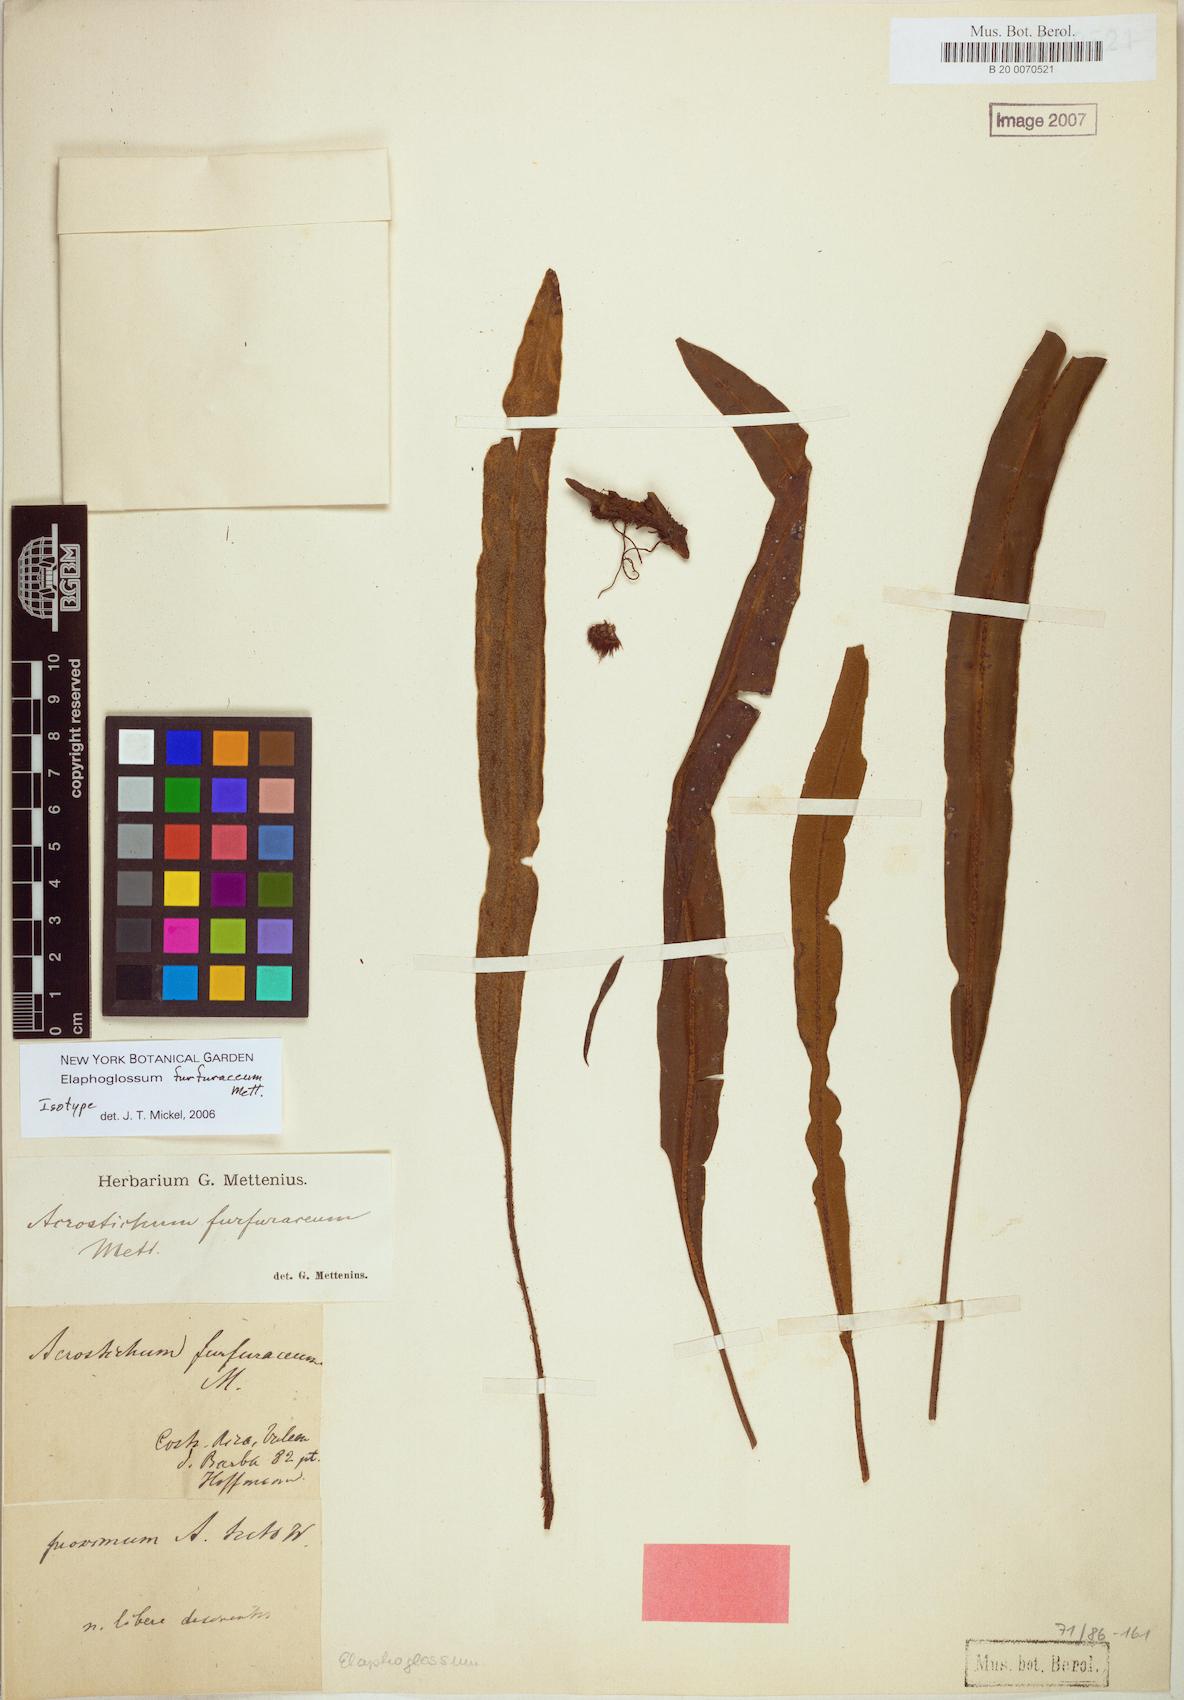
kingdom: Plantae
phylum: Tracheophyta
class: Polypodiopsida
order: Polypodiales
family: Dryopteridaceae
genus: Elaphoglossum
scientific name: Elaphoglossum furfuraceum
